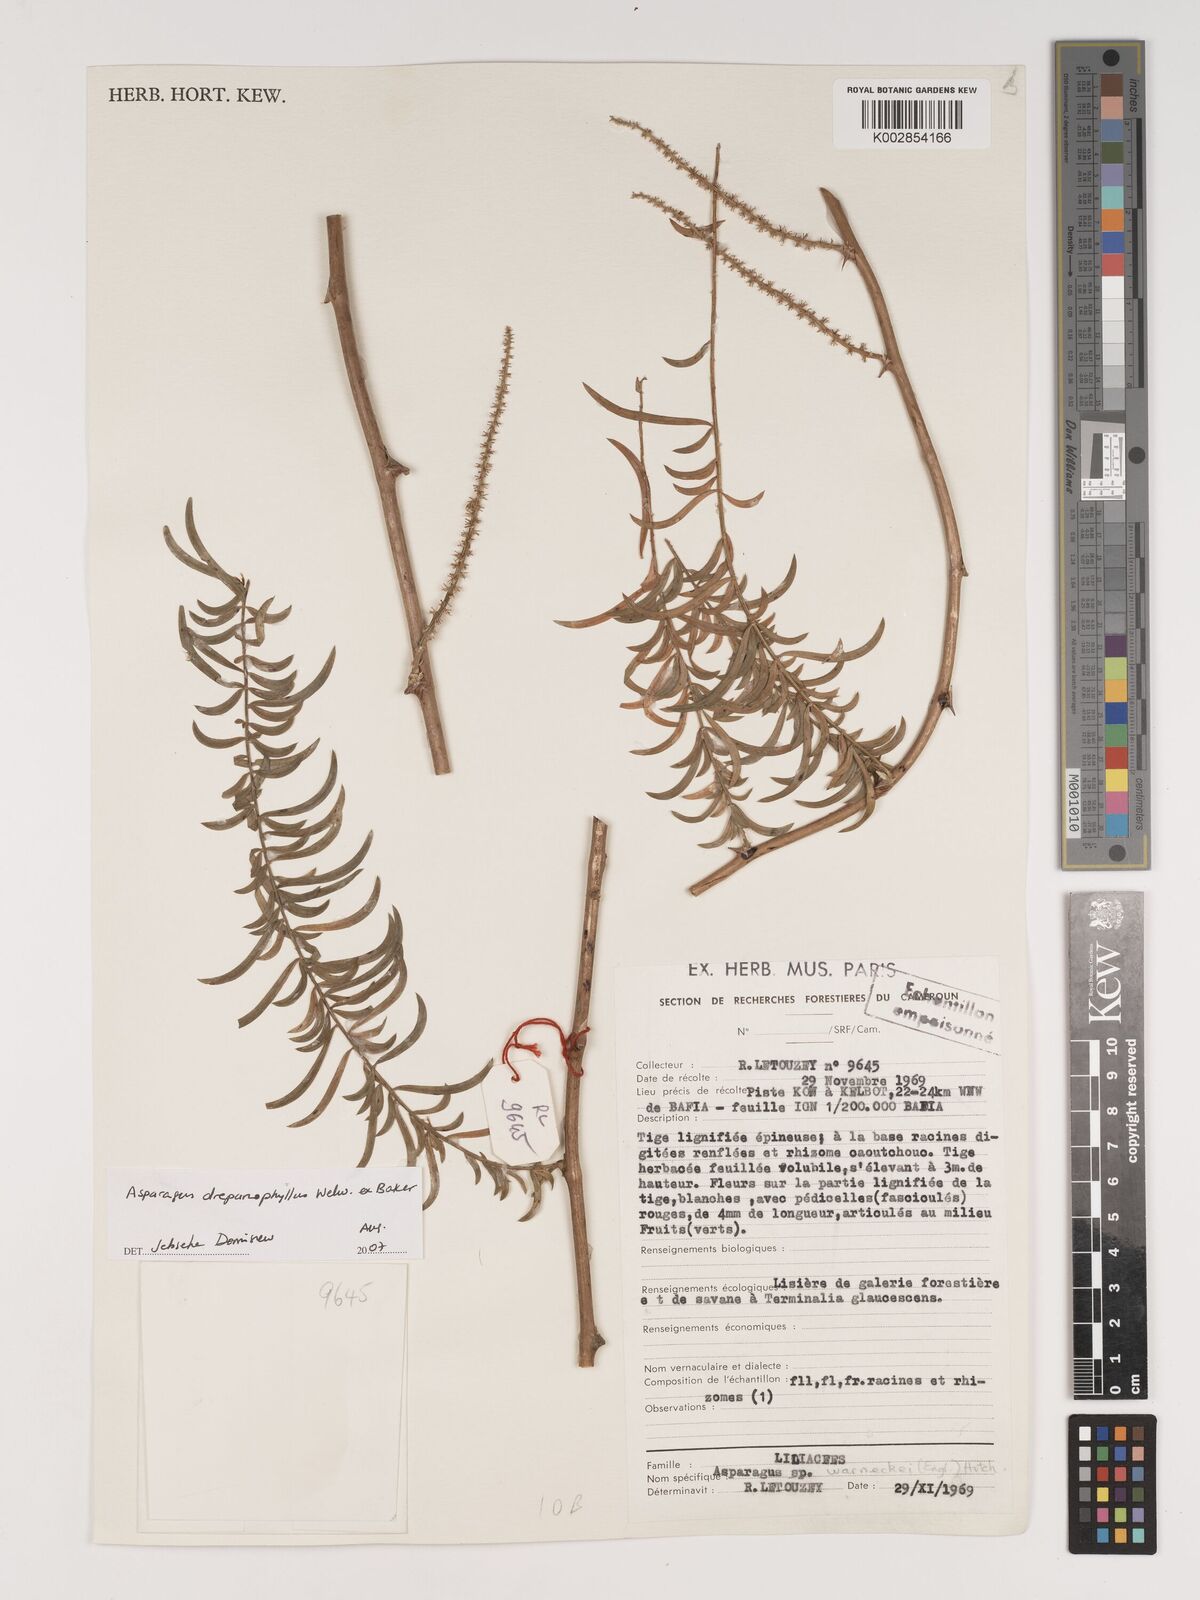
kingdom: Plantae
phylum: Tracheophyta
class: Liliopsida
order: Asparagales
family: Asparagaceae
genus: Asparagus
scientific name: Asparagus drepanophyllus
